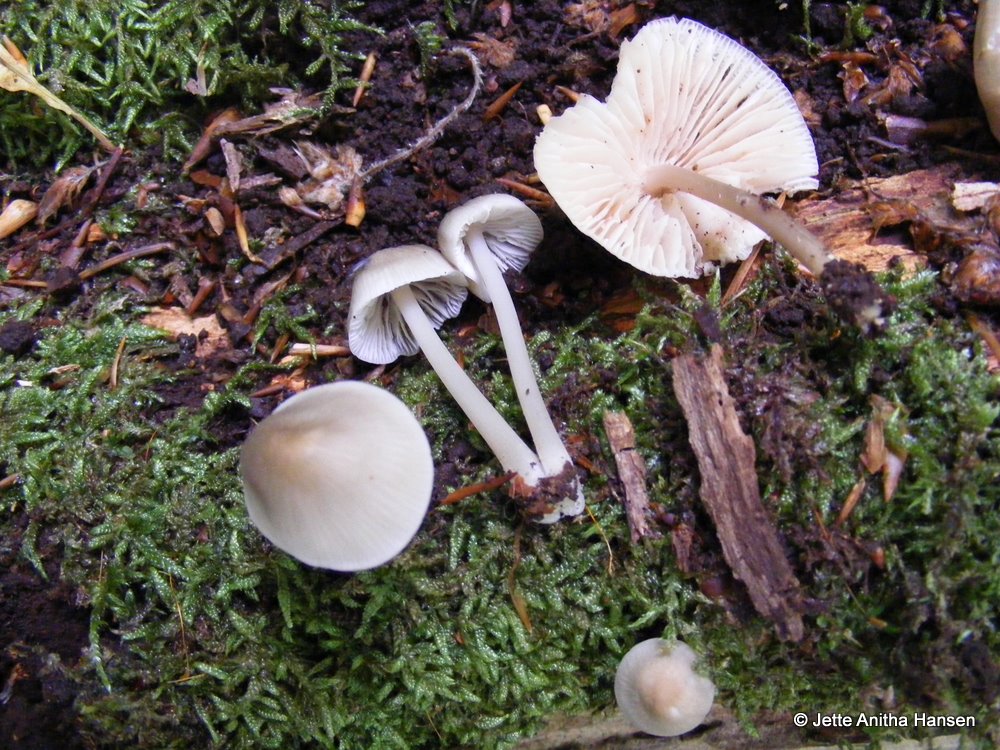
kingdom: Fungi
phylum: Basidiomycota
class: Agaricomycetes
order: Agaricales
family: Mycenaceae
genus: Mycena
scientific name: Mycena galericulata
